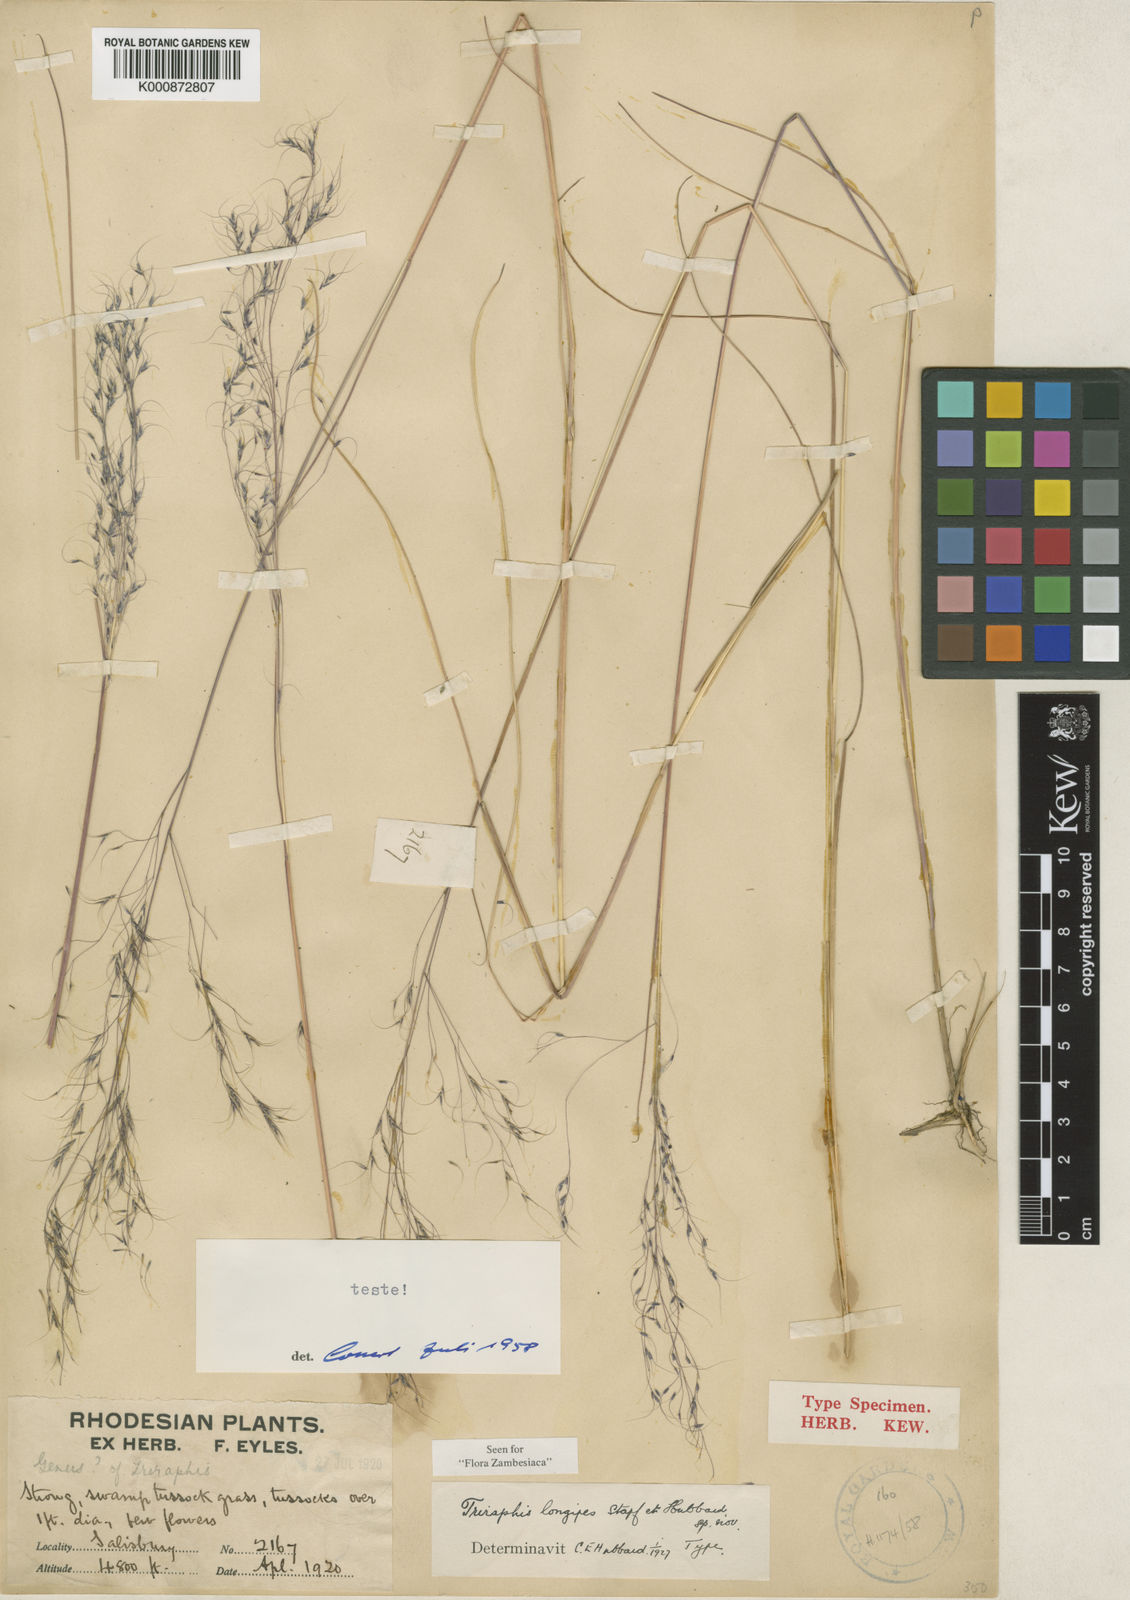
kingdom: Plantae
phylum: Tracheophyta
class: Liliopsida
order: Poales
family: Poaceae
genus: Nematopoa
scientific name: Nematopoa longipes
